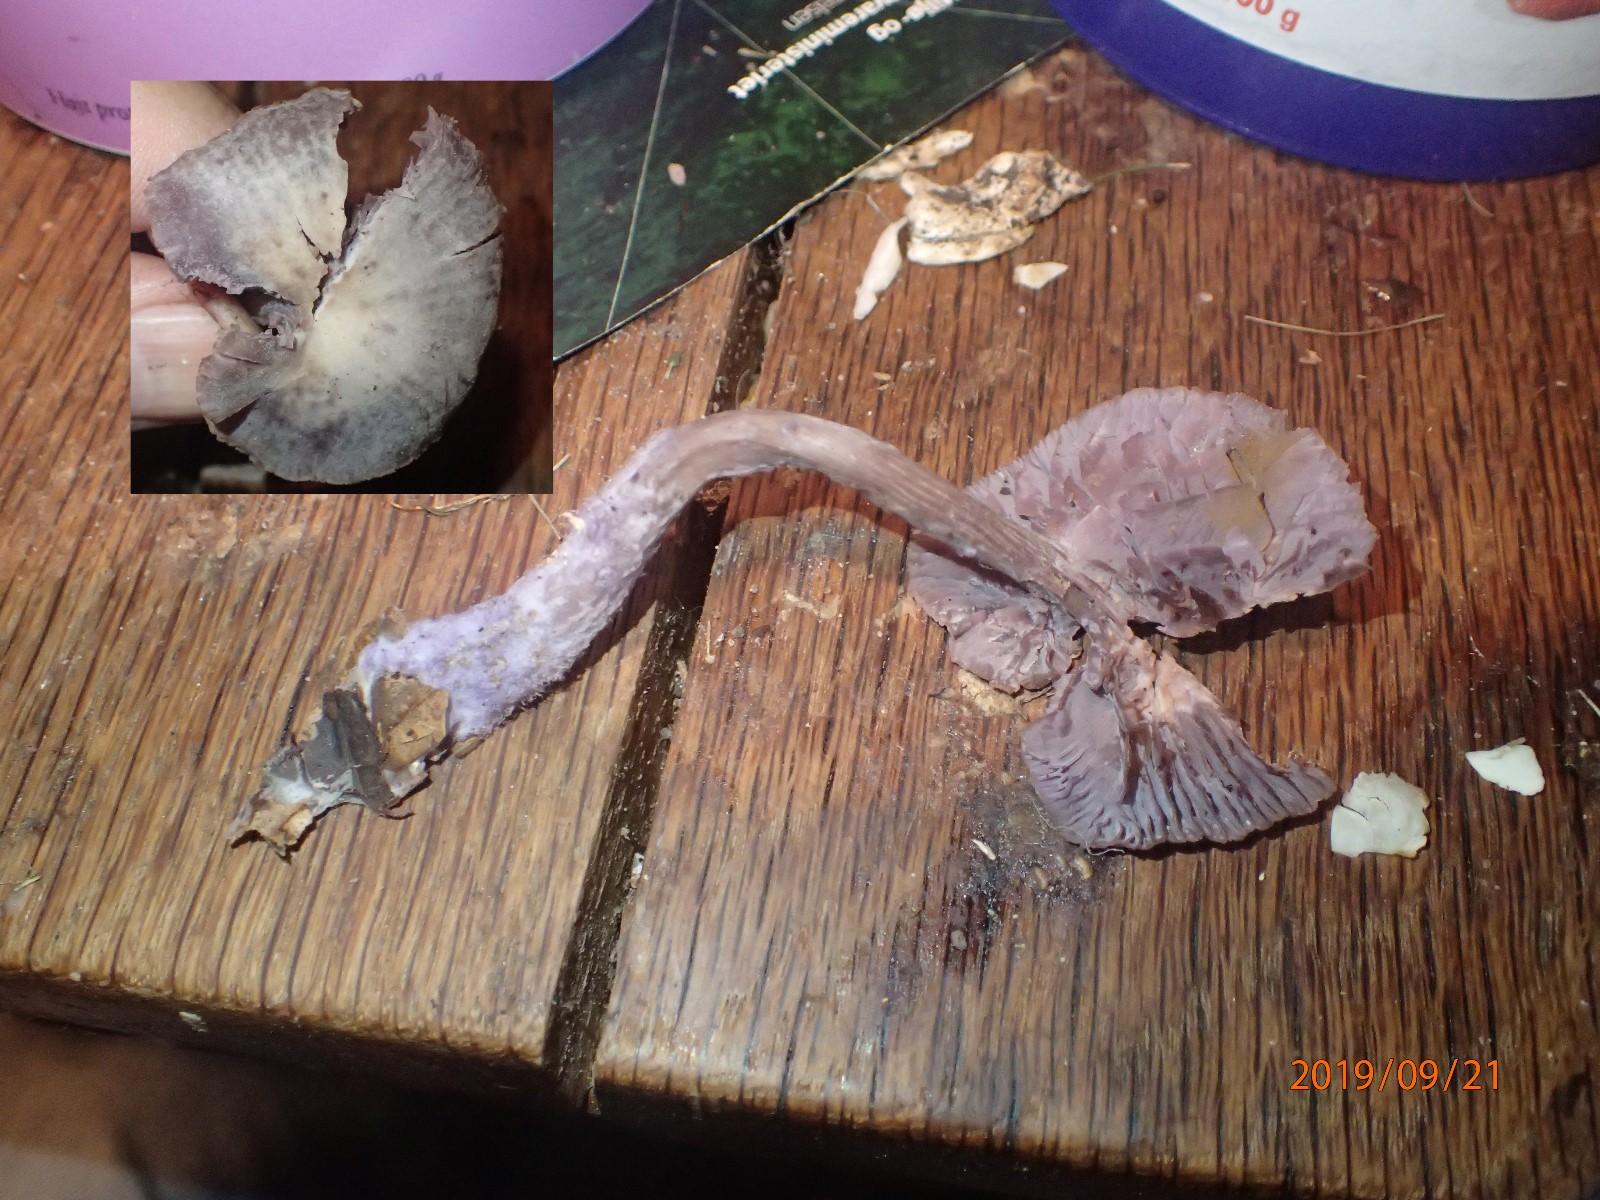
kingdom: Fungi
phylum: Basidiomycota
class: Agaricomycetes
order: Agaricales
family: Hydnangiaceae
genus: Laccaria
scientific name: Laccaria amethystina
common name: violet ametysthat
